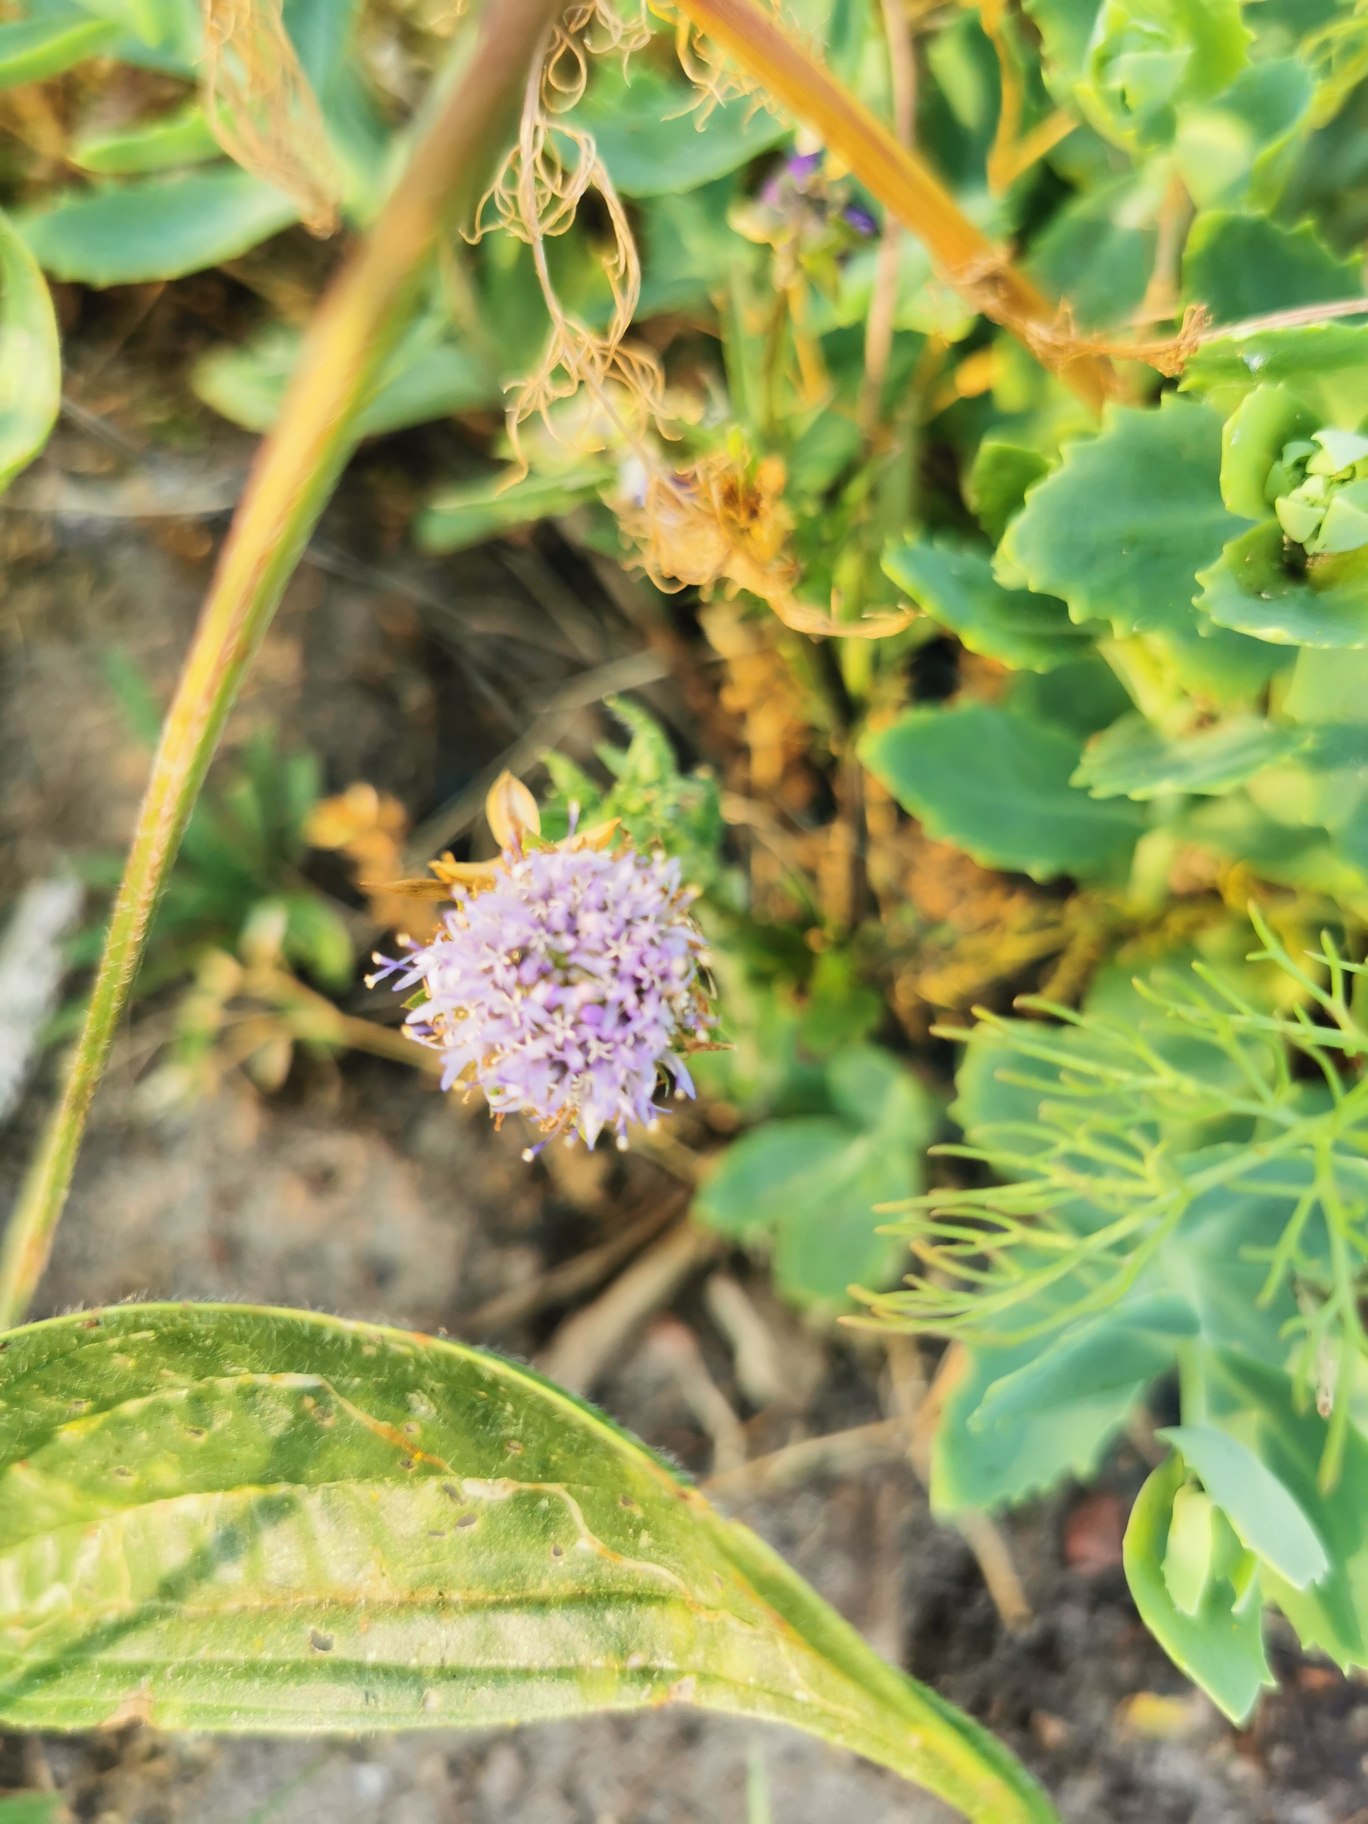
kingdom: Plantae
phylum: Tracheophyta
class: Magnoliopsida
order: Asterales
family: Campanulaceae
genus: Jasione
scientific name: Jasione montana
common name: Blåmunke
